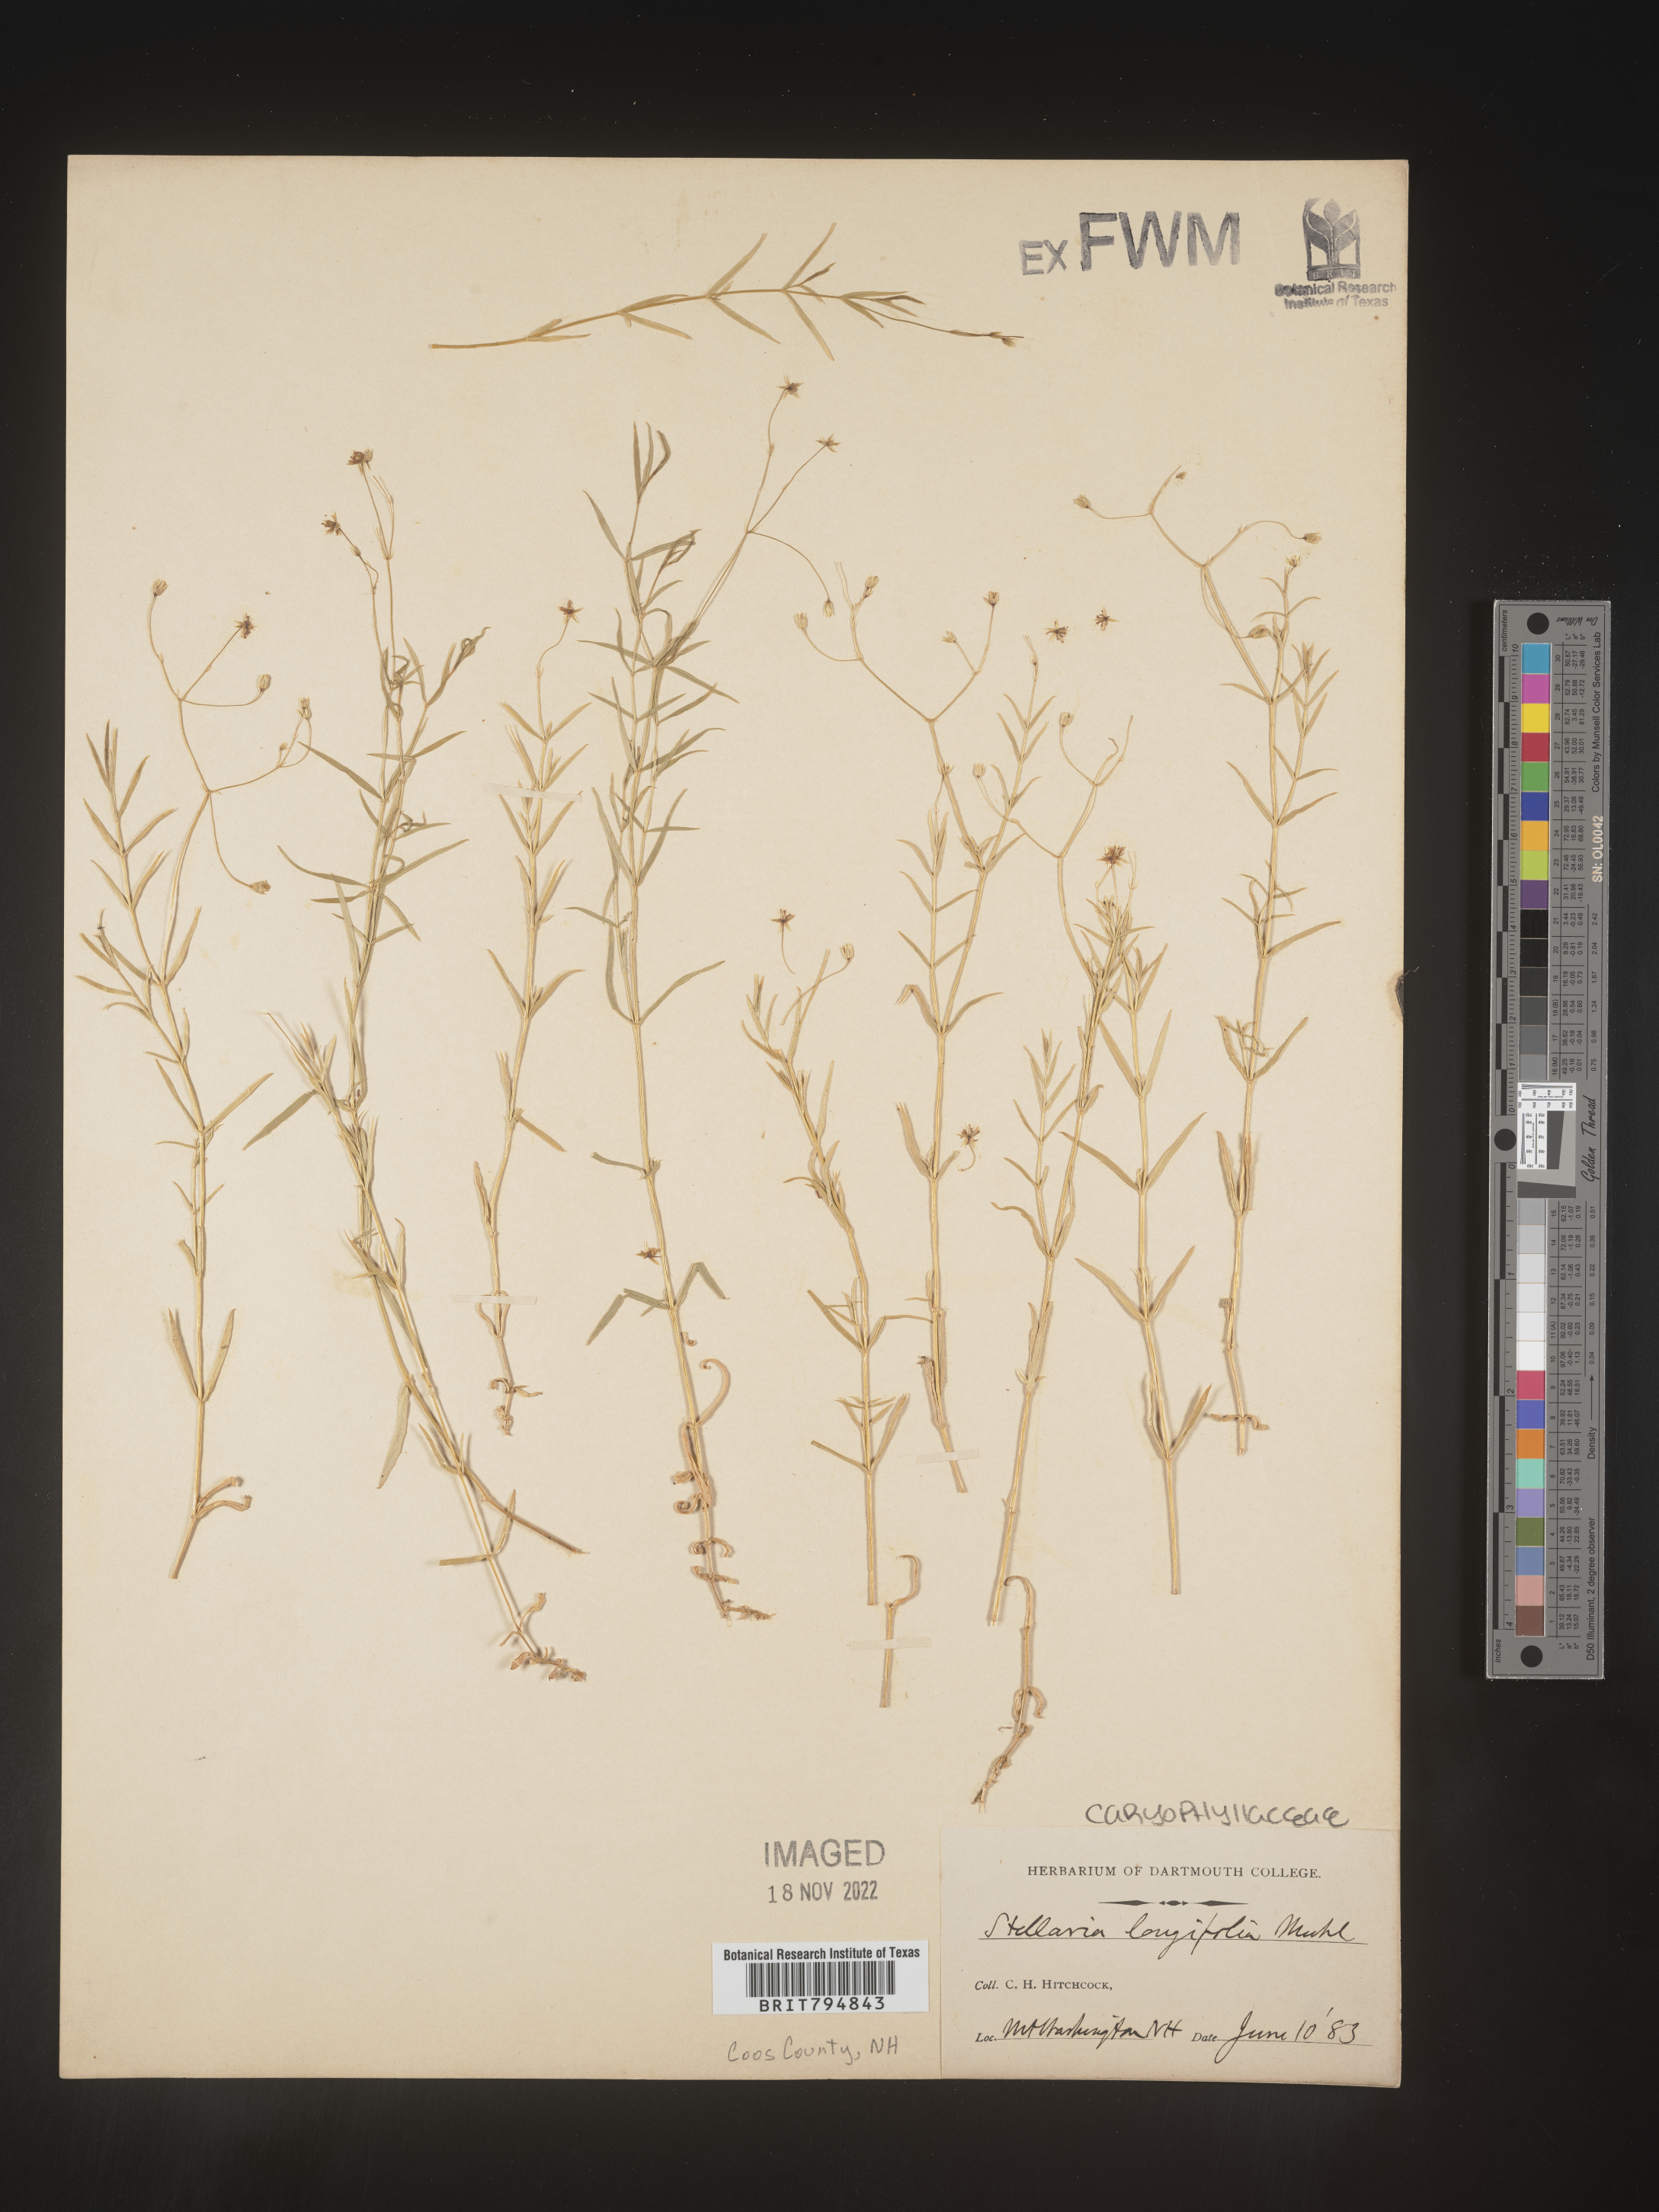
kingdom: Plantae
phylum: Tracheophyta
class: Magnoliopsida
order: Caryophyllales
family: Caryophyllaceae
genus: Stellaria
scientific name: Stellaria longifolia
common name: Long-leaved chickweed
